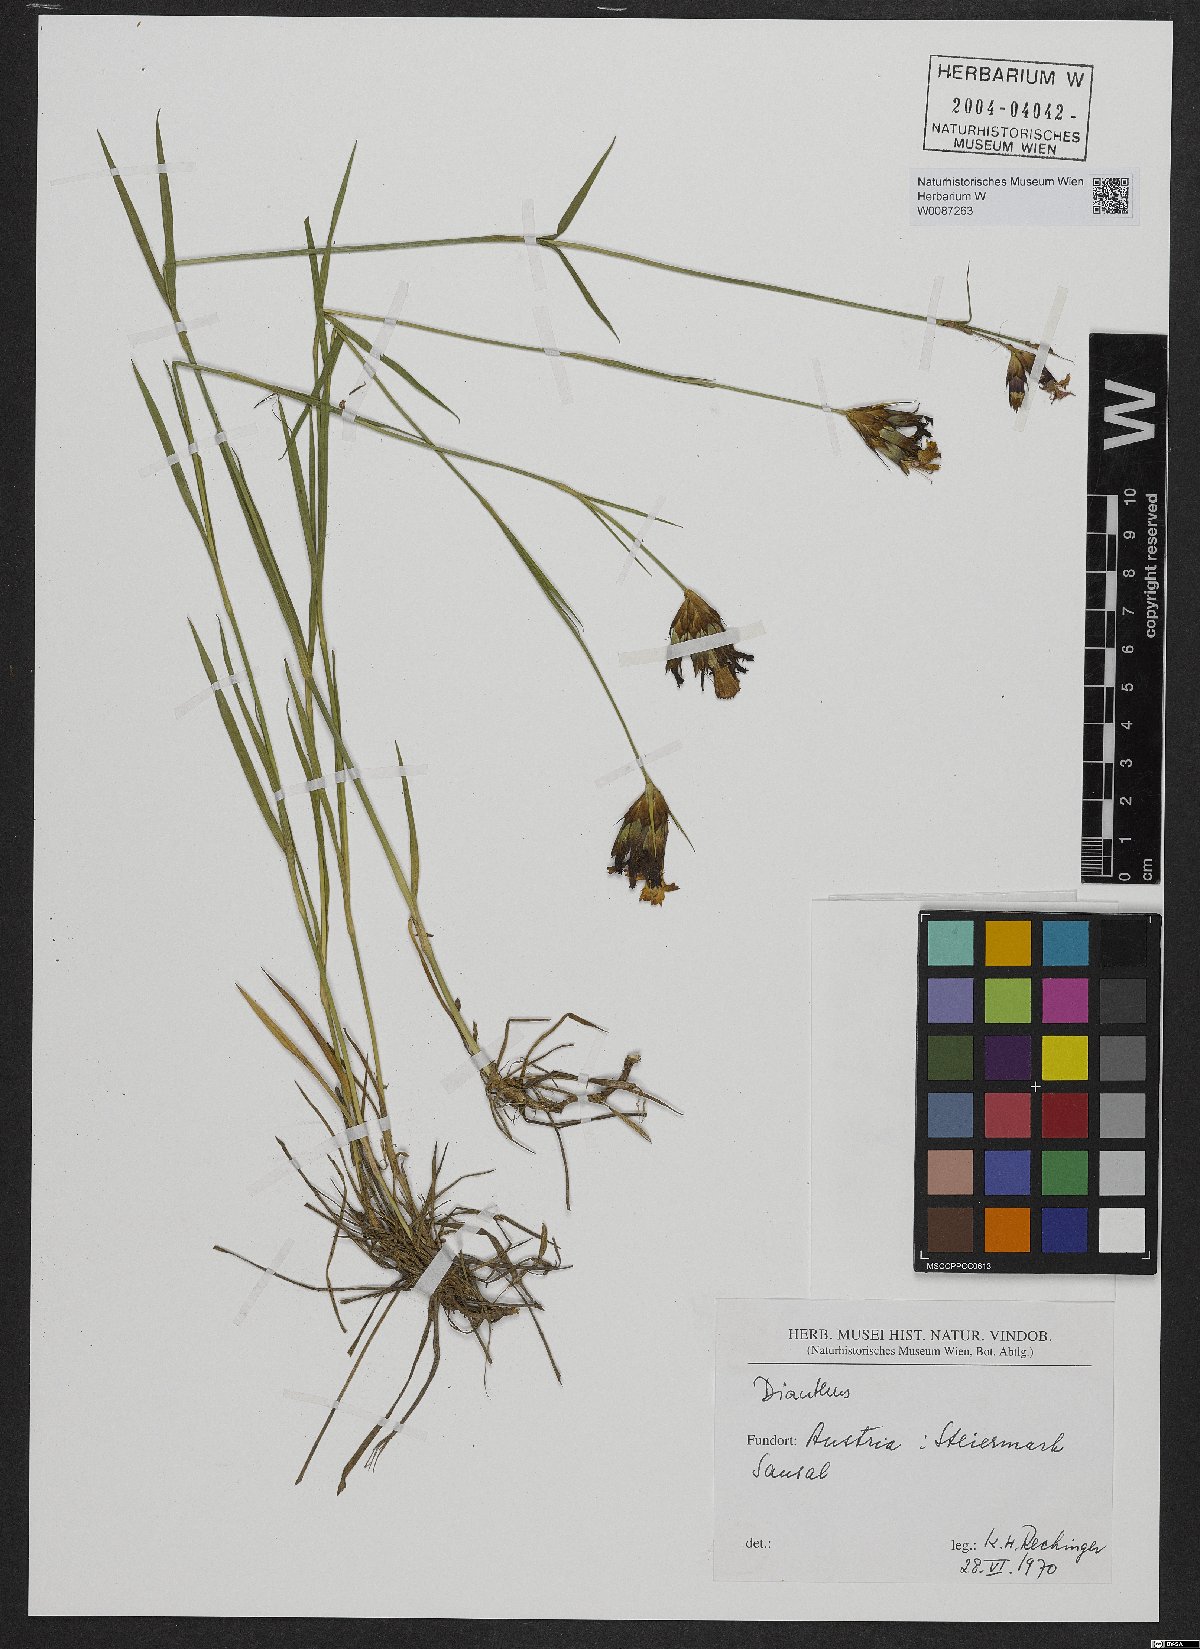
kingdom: Plantae
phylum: Tracheophyta
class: Magnoliopsida
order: Caryophyllales
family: Caryophyllaceae
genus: Dianthus
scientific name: Dianthus carthusianorum
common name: Carthusian pink
